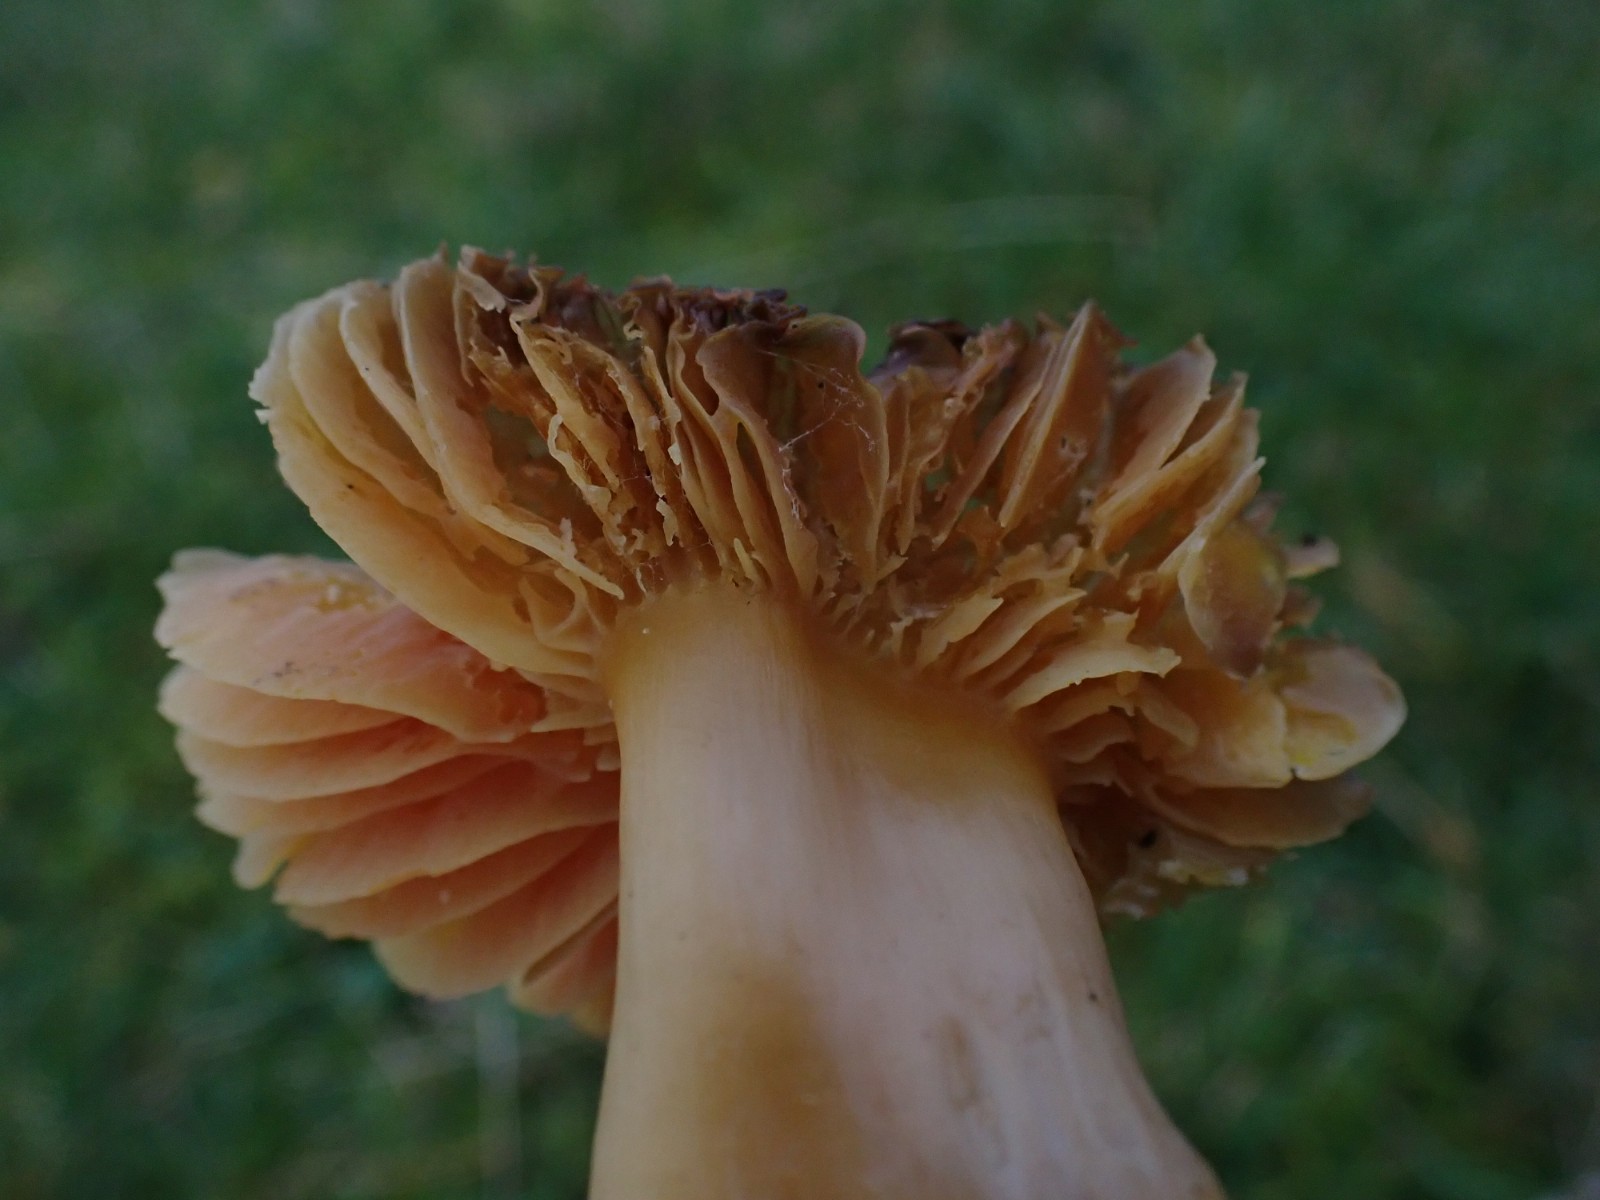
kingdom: Fungi
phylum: Basidiomycota
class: Agaricomycetes
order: Agaricales
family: Hygrophoraceae
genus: Hygrocybe
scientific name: Hygrocybe quieta
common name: tæge-vokshat
